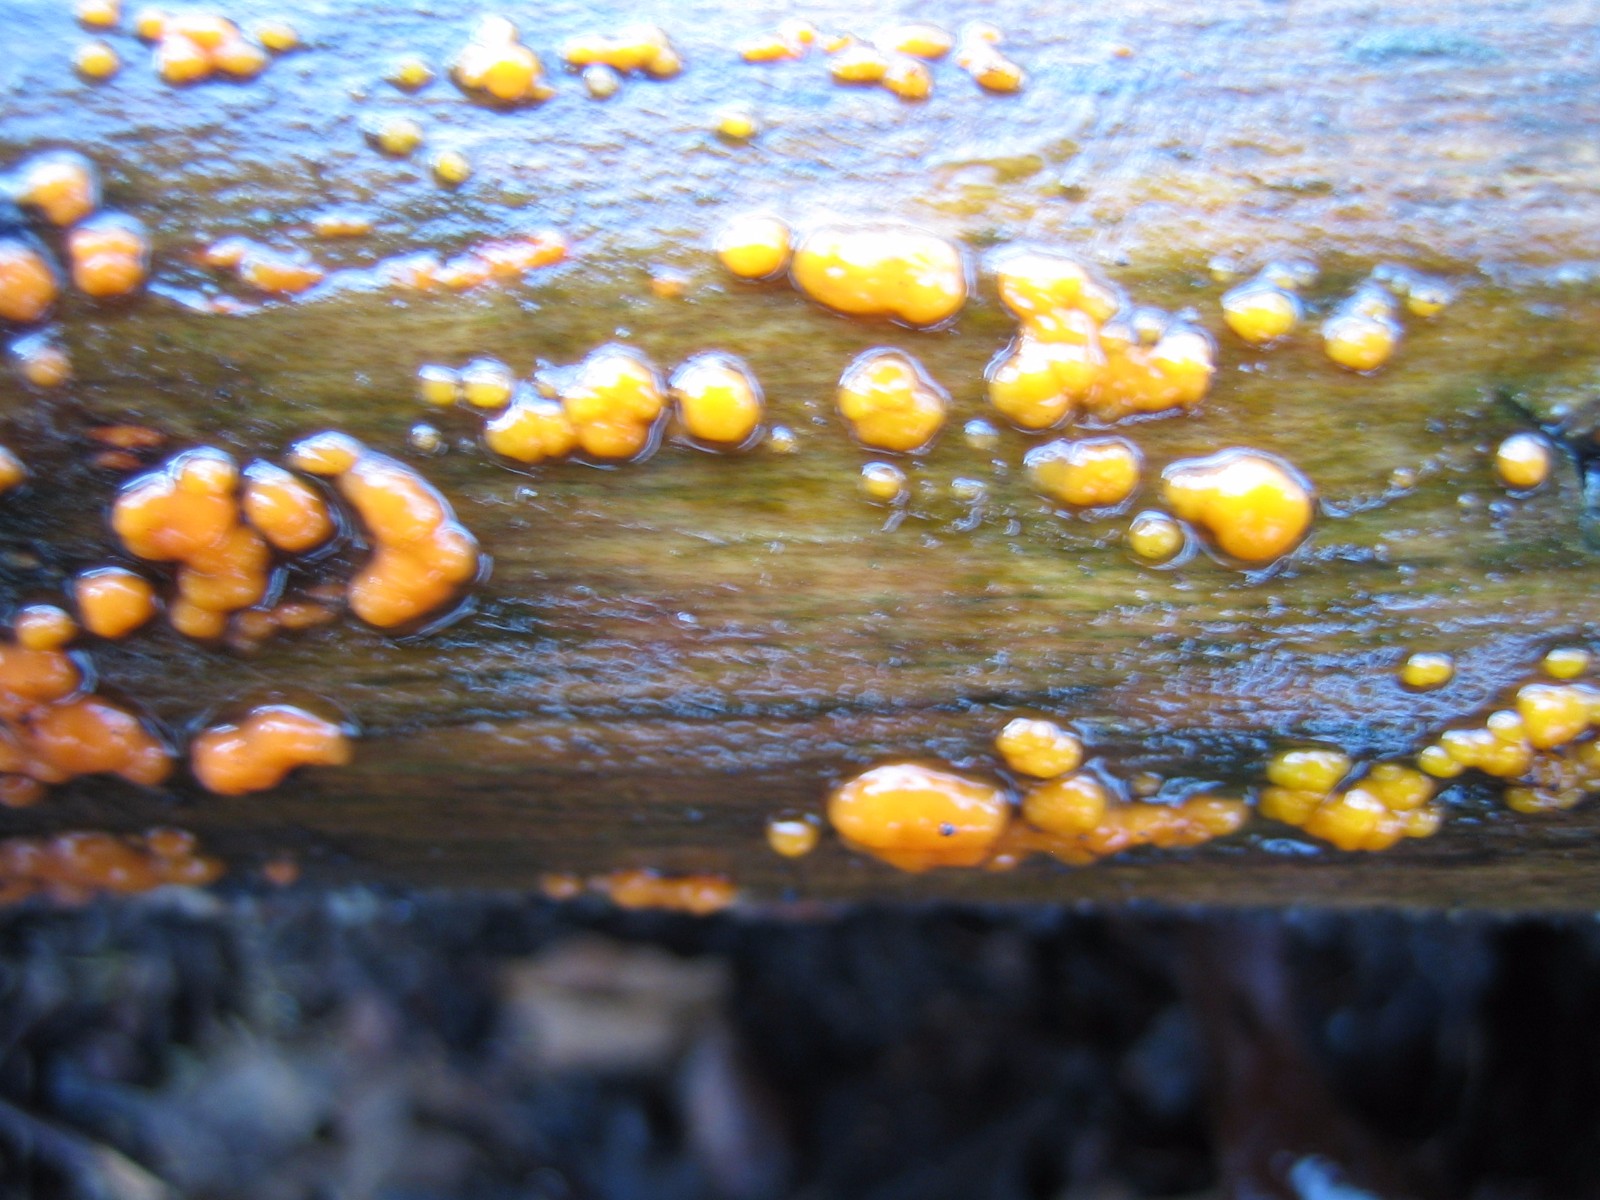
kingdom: Fungi
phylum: Basidiomycota
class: Dacrymycetes
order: Dacrymycetales
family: Dacrymycetaceae
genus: Dacrymyces
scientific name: Dacrymyces stillatus
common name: almindelig tåresvamp
